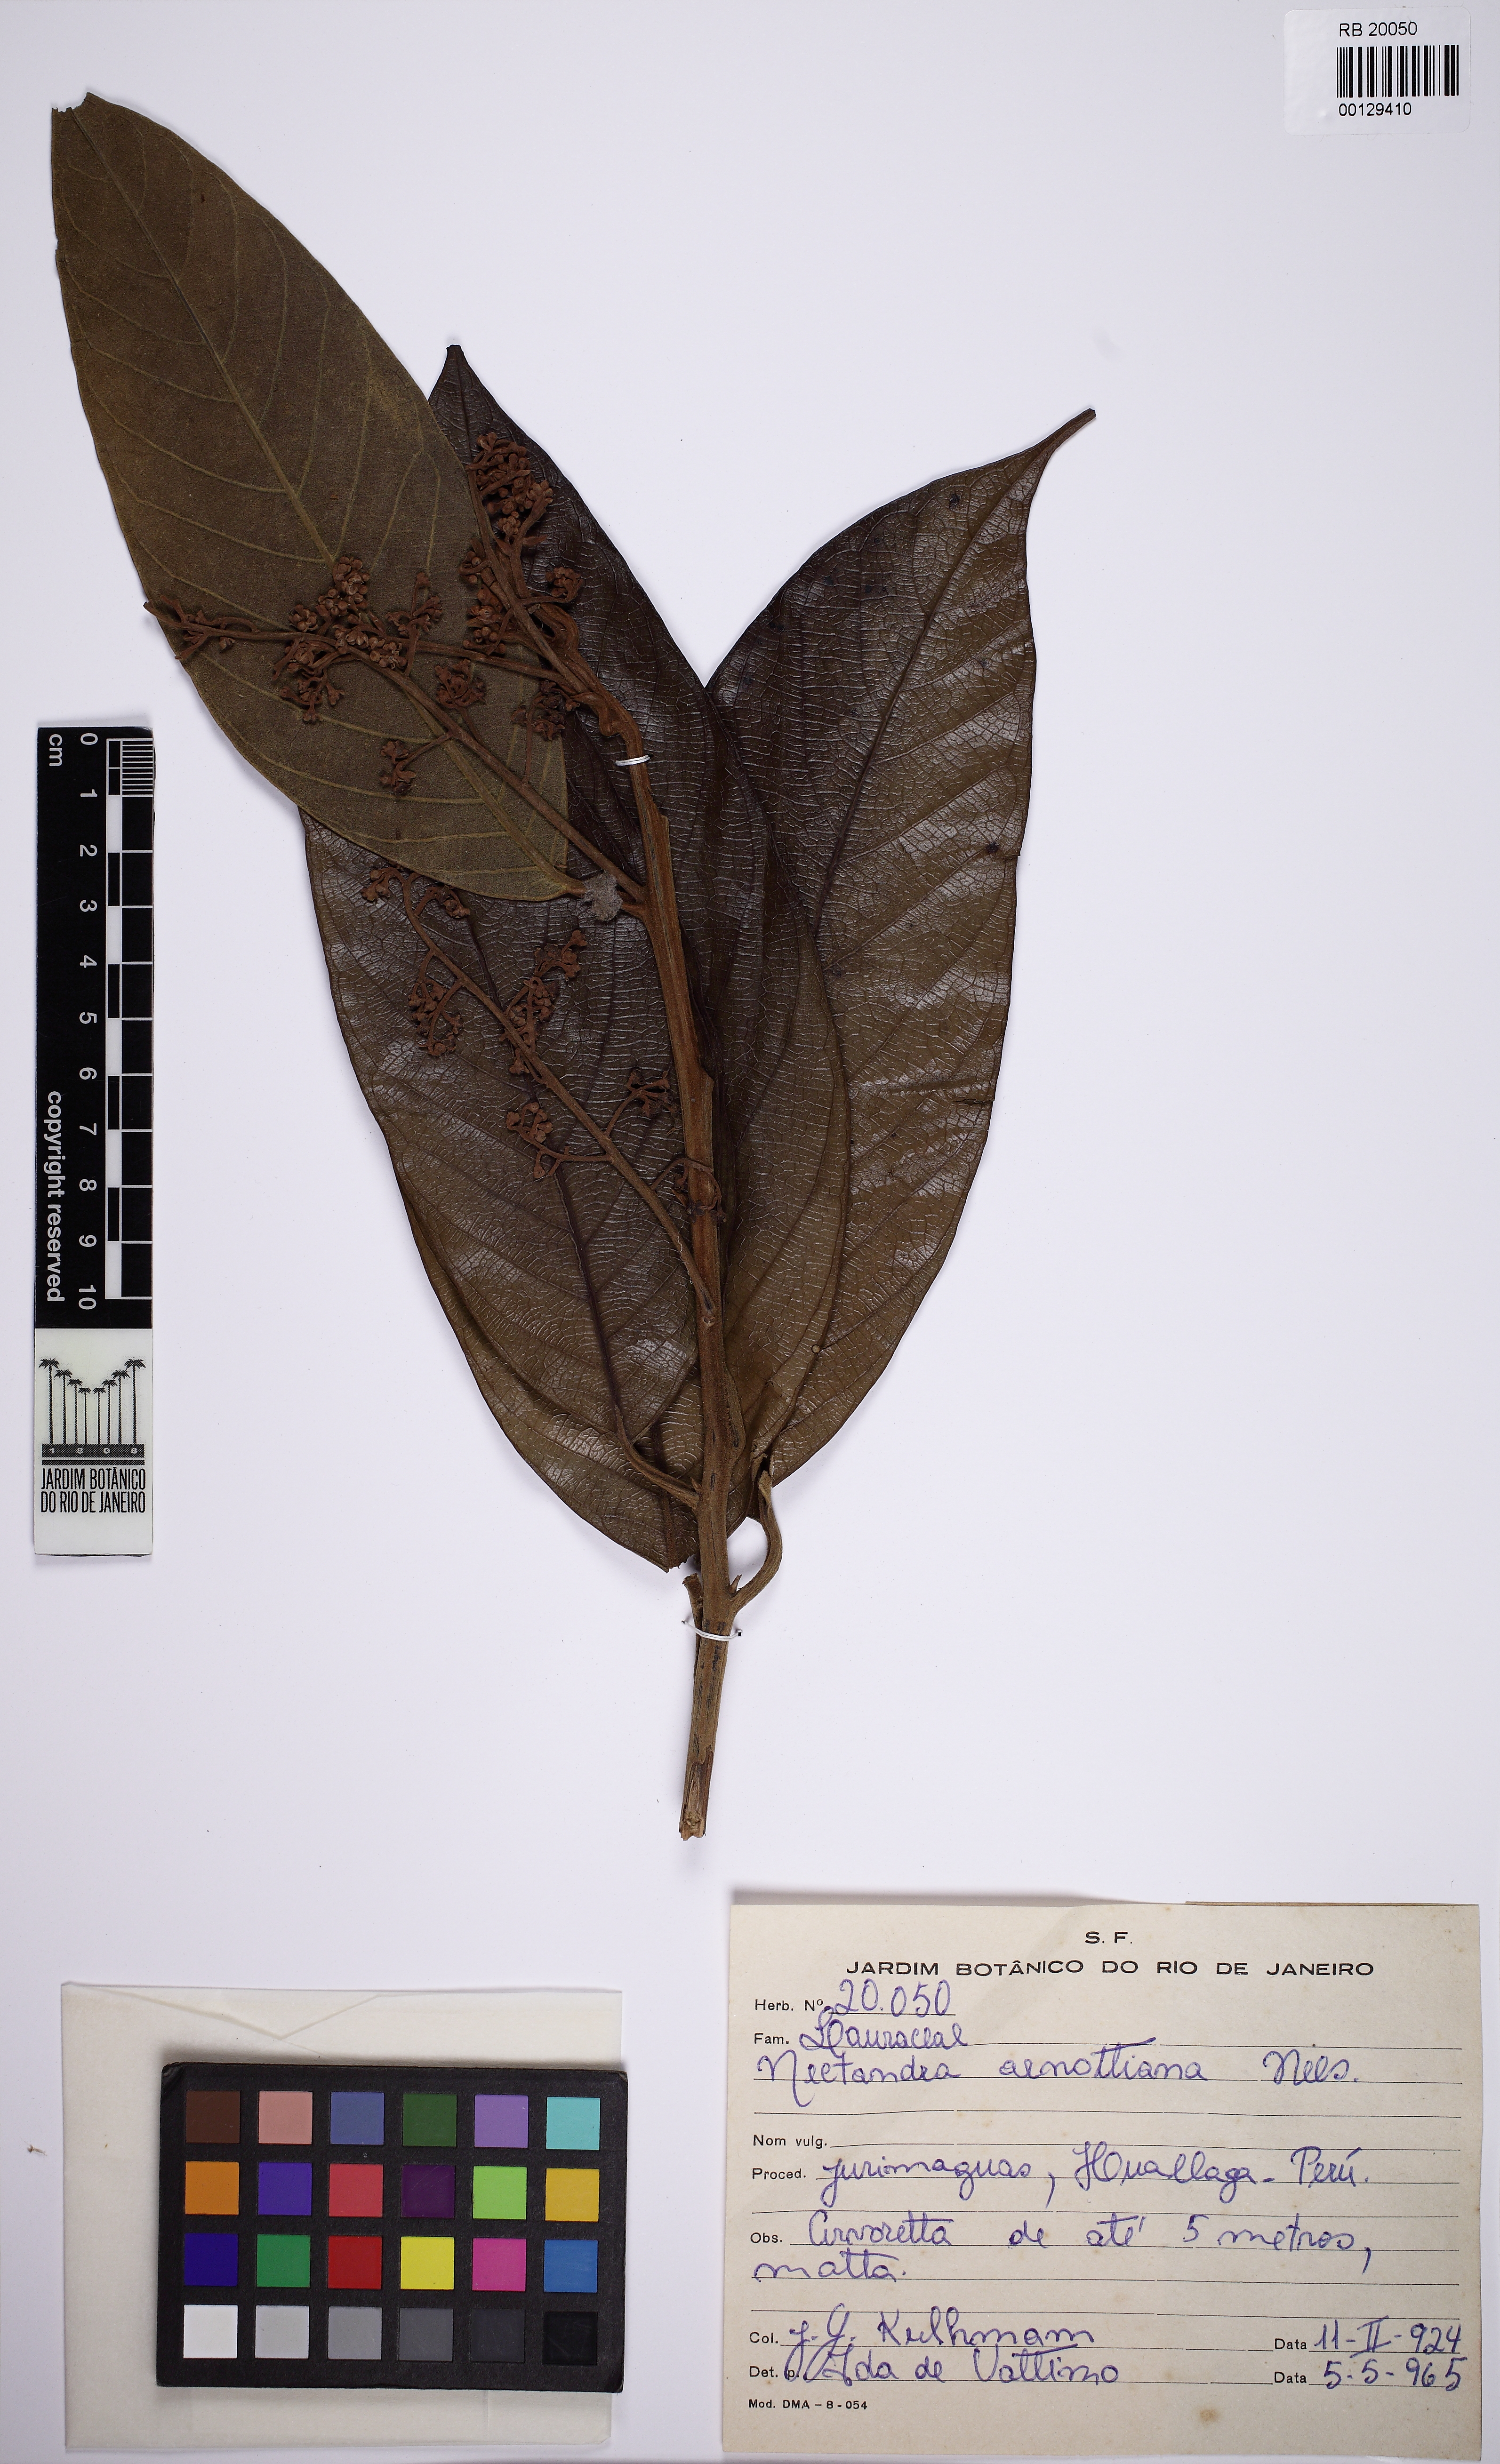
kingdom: Plantae
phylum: Tracheophyta
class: Magnoliopsida
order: Laurales
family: Lauraceae
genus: Ocotea
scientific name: Ocotea arnottiana
